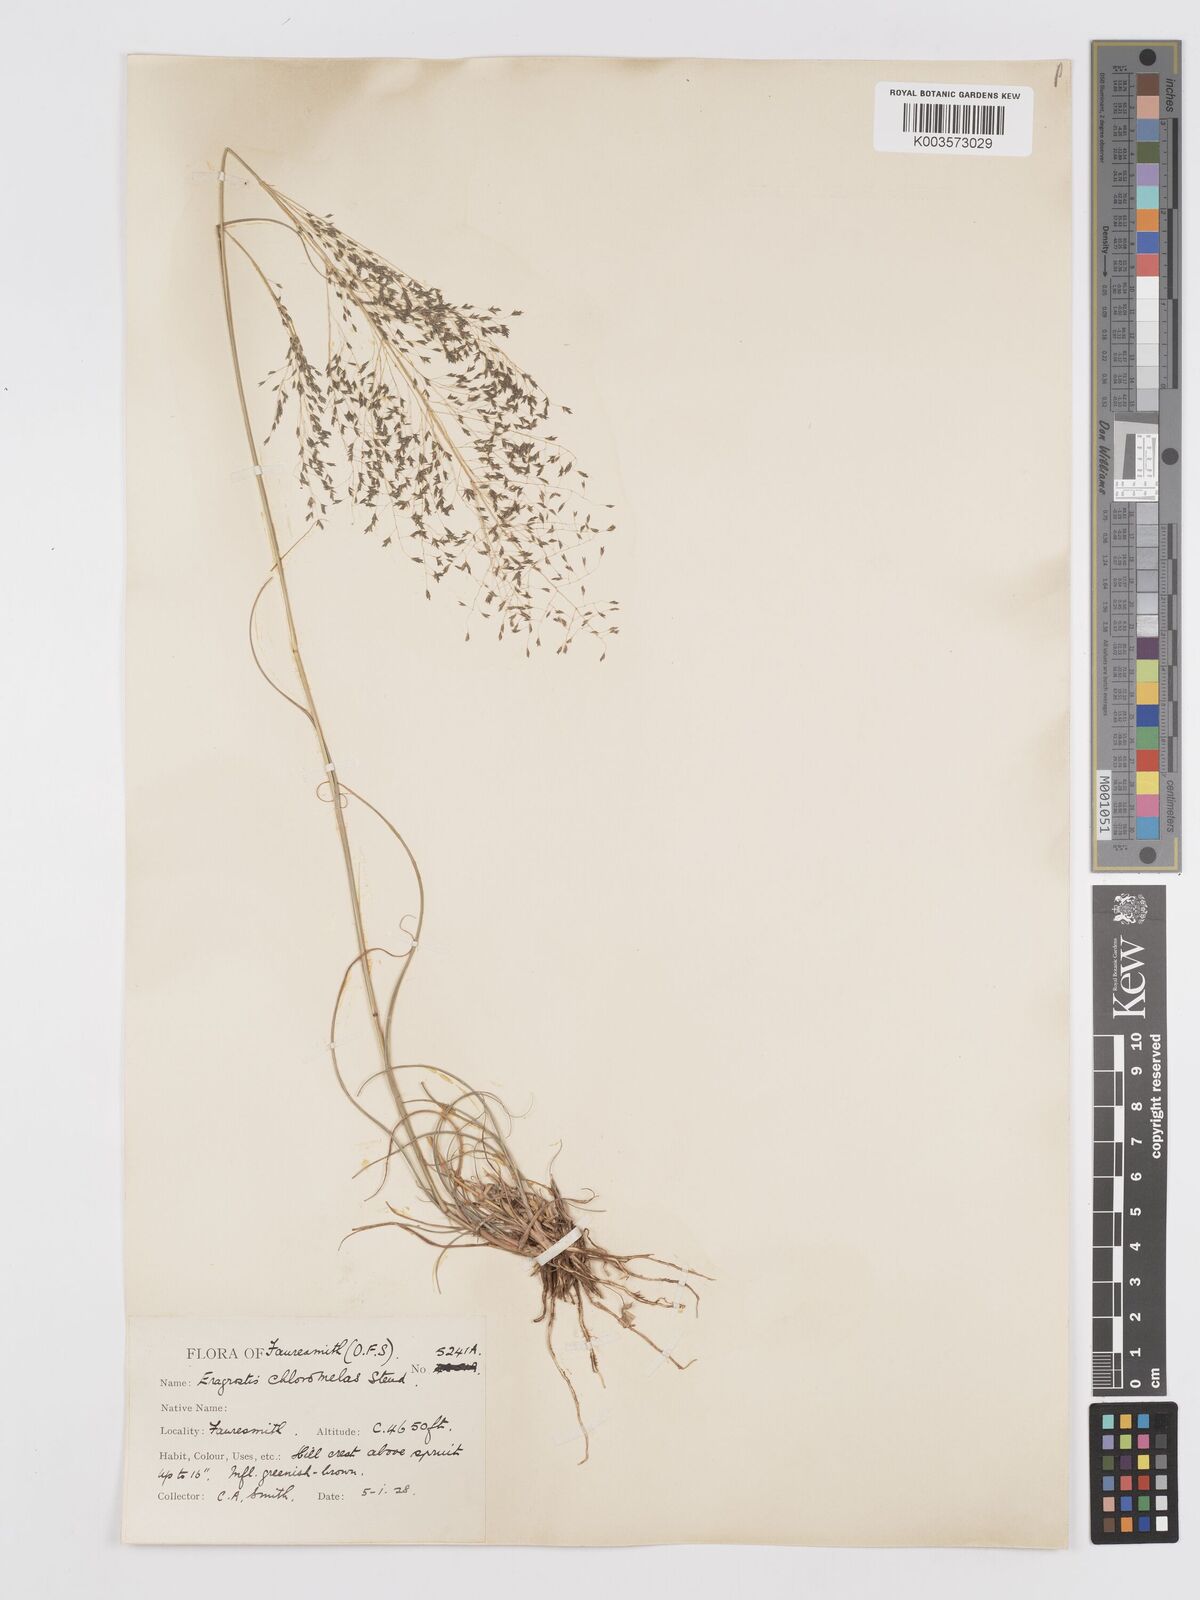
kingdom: Plantae
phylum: Tracheophyta
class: Liliopsida
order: Poales
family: Poaceae
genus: Eragrostis
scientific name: Eragrostis curvula
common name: African love-grass
